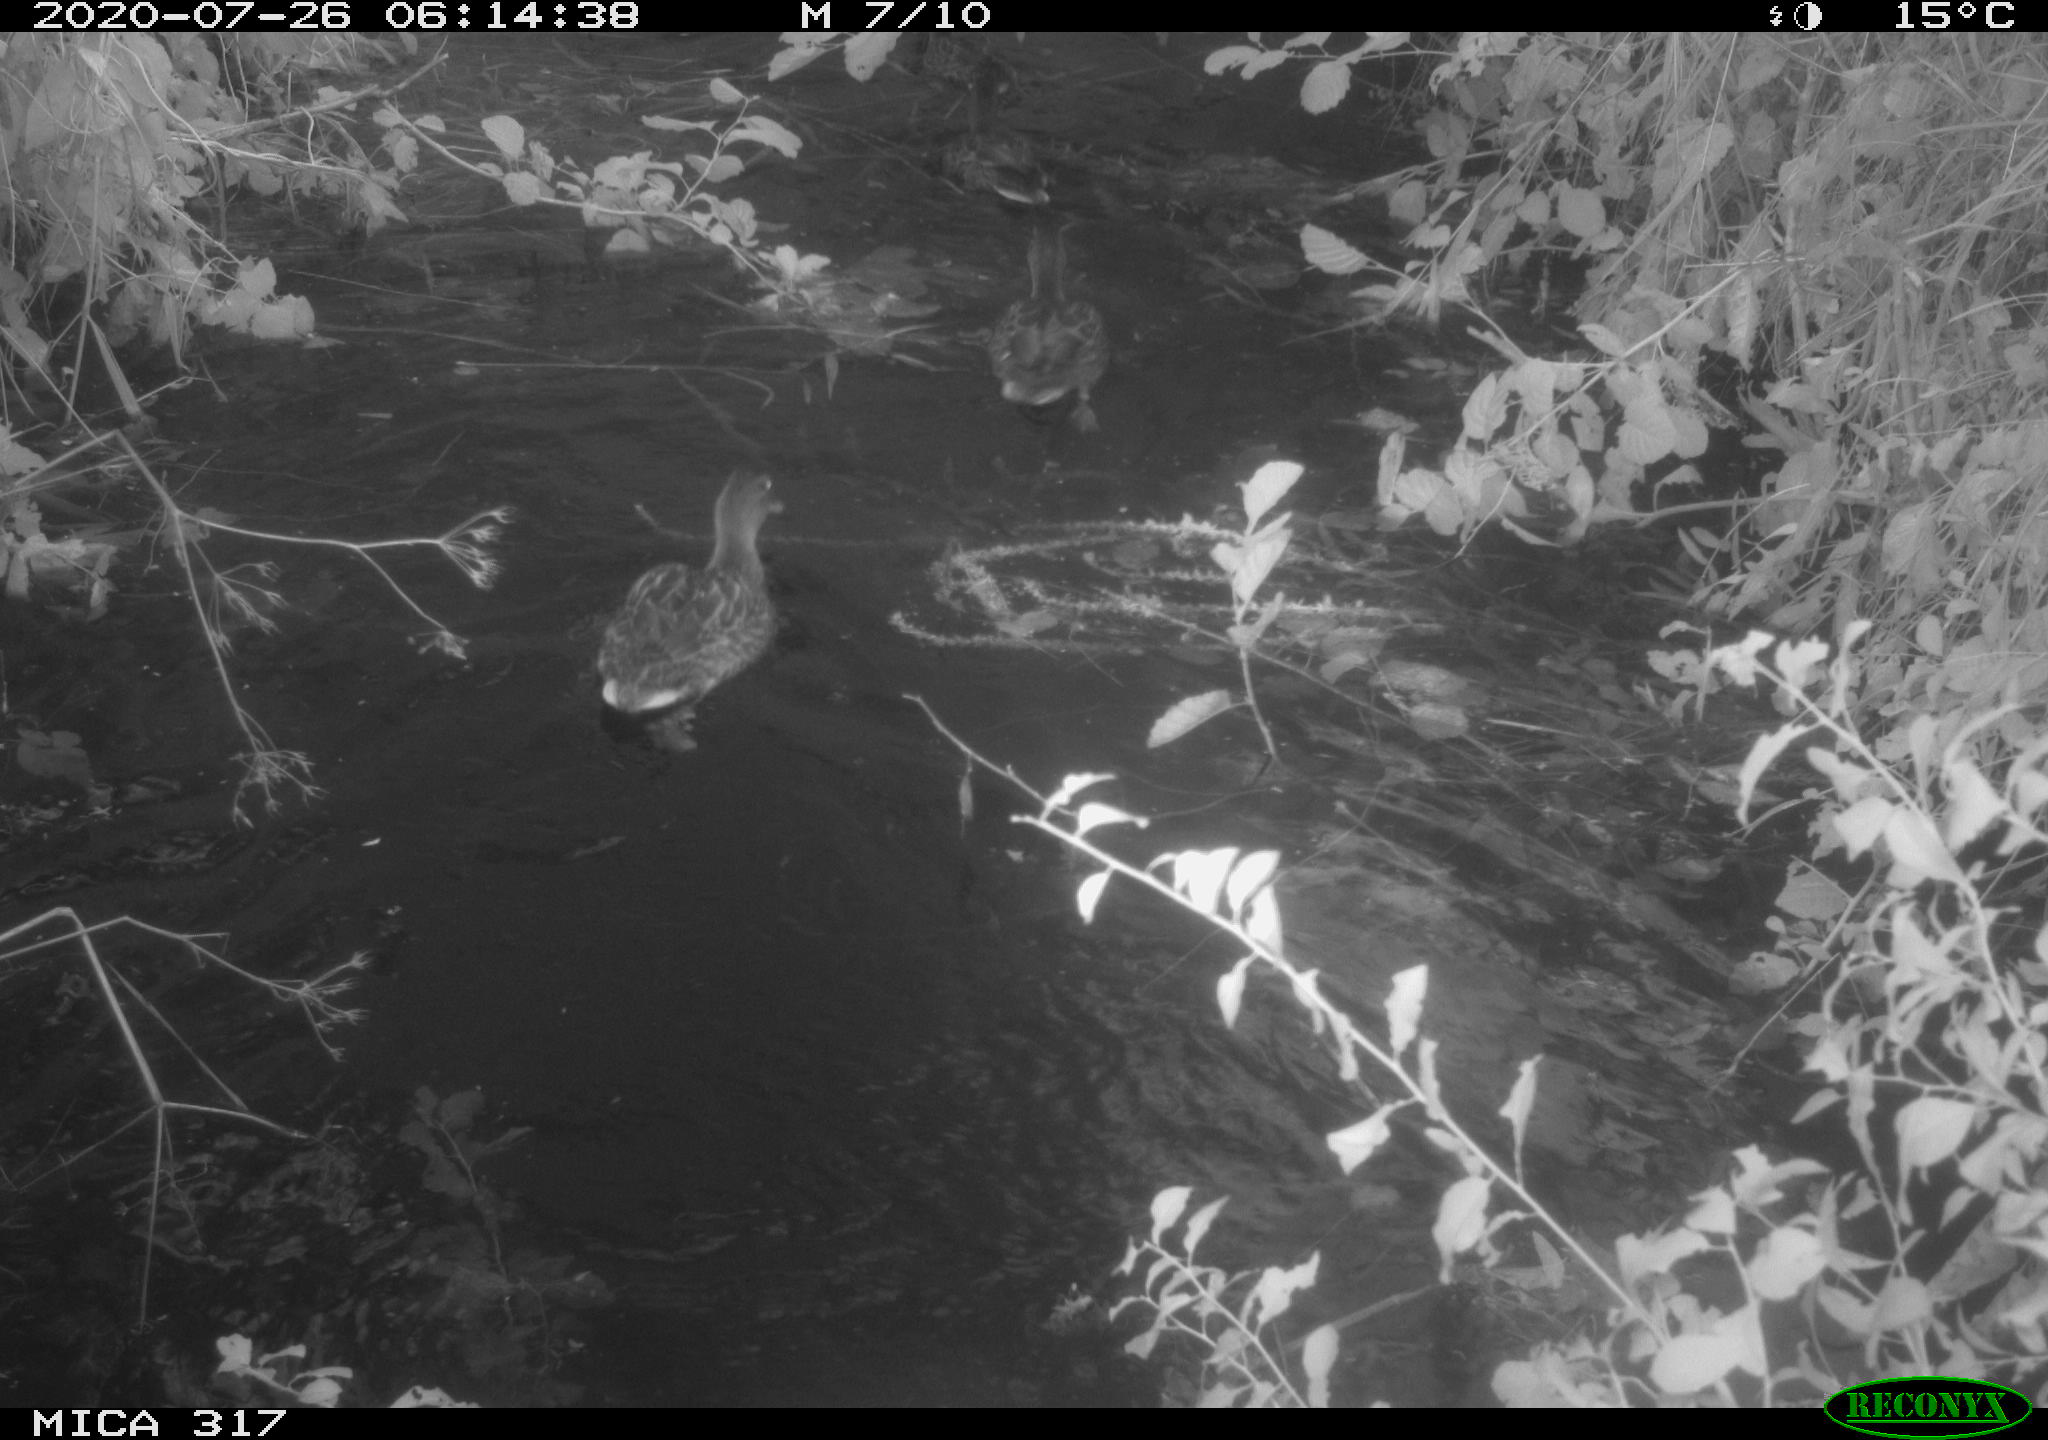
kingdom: Animalia
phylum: Chordata
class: Aves
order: Anseriformes
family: Anatidae
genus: Anas
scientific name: Anas platyrhynchos
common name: Mallard
